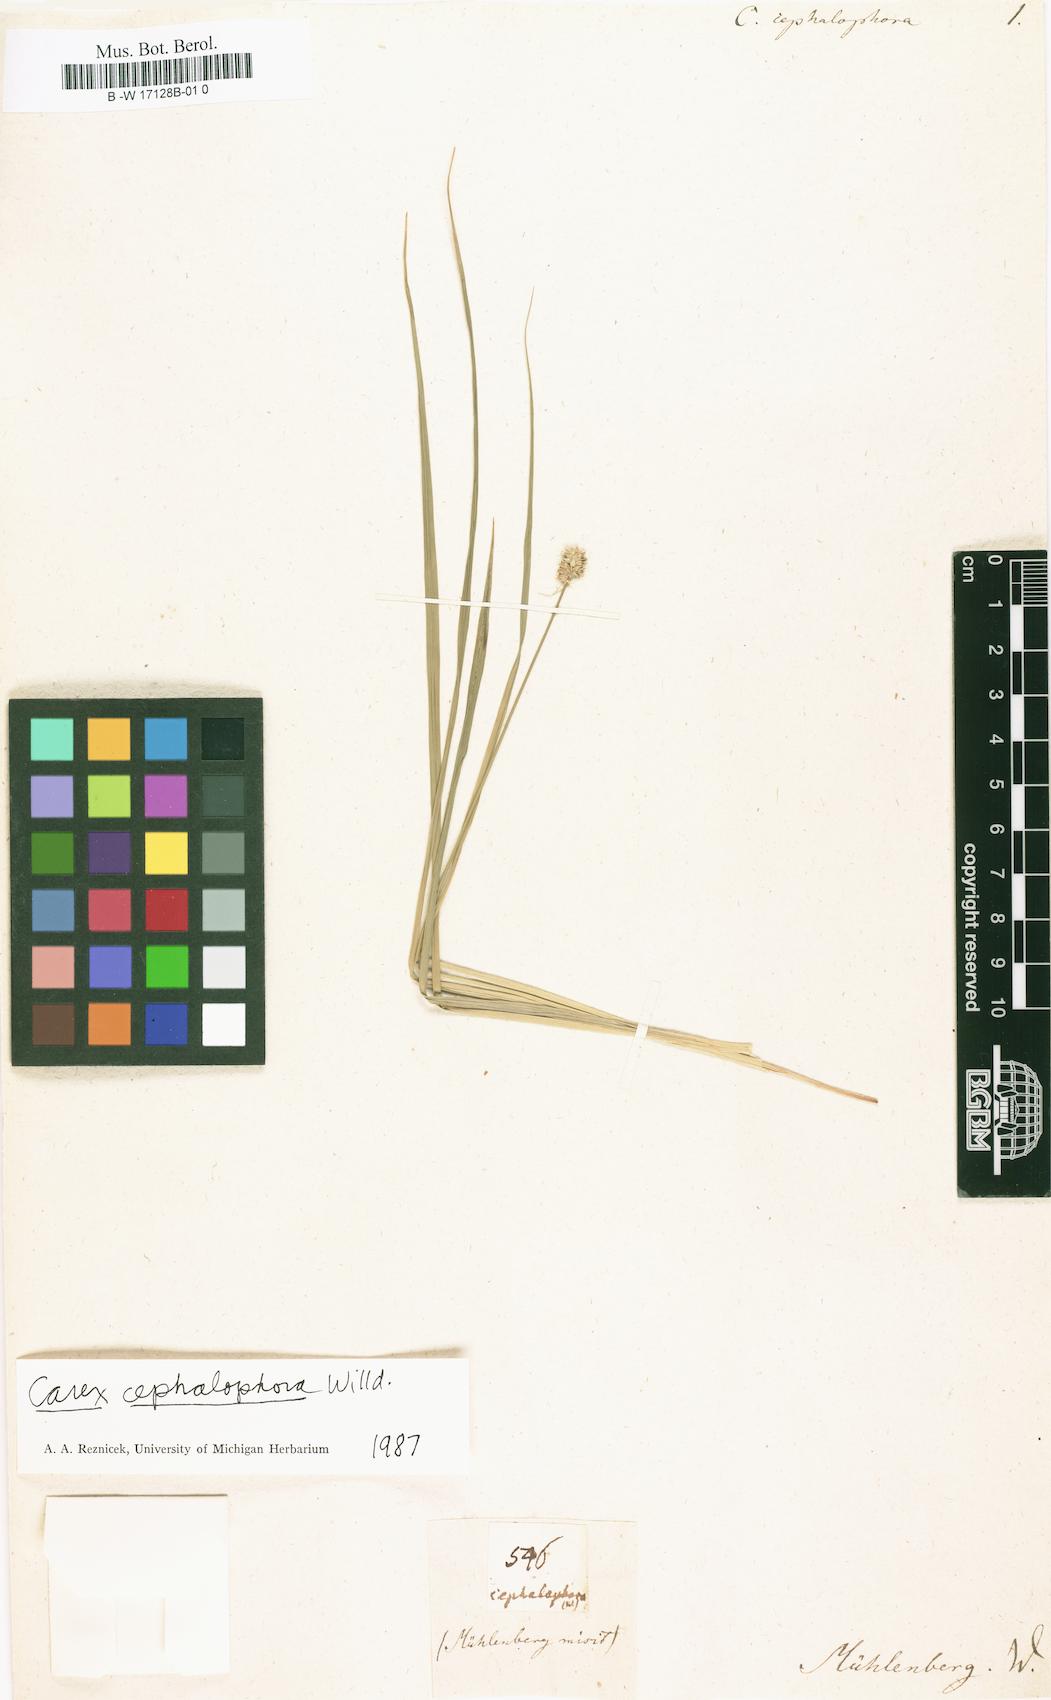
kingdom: Plantae
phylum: Tracheophyta
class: Liliopsida
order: Poales
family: Cyperaceae
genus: Carex
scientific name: Carex cephalophora
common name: Oval-headed sedge
